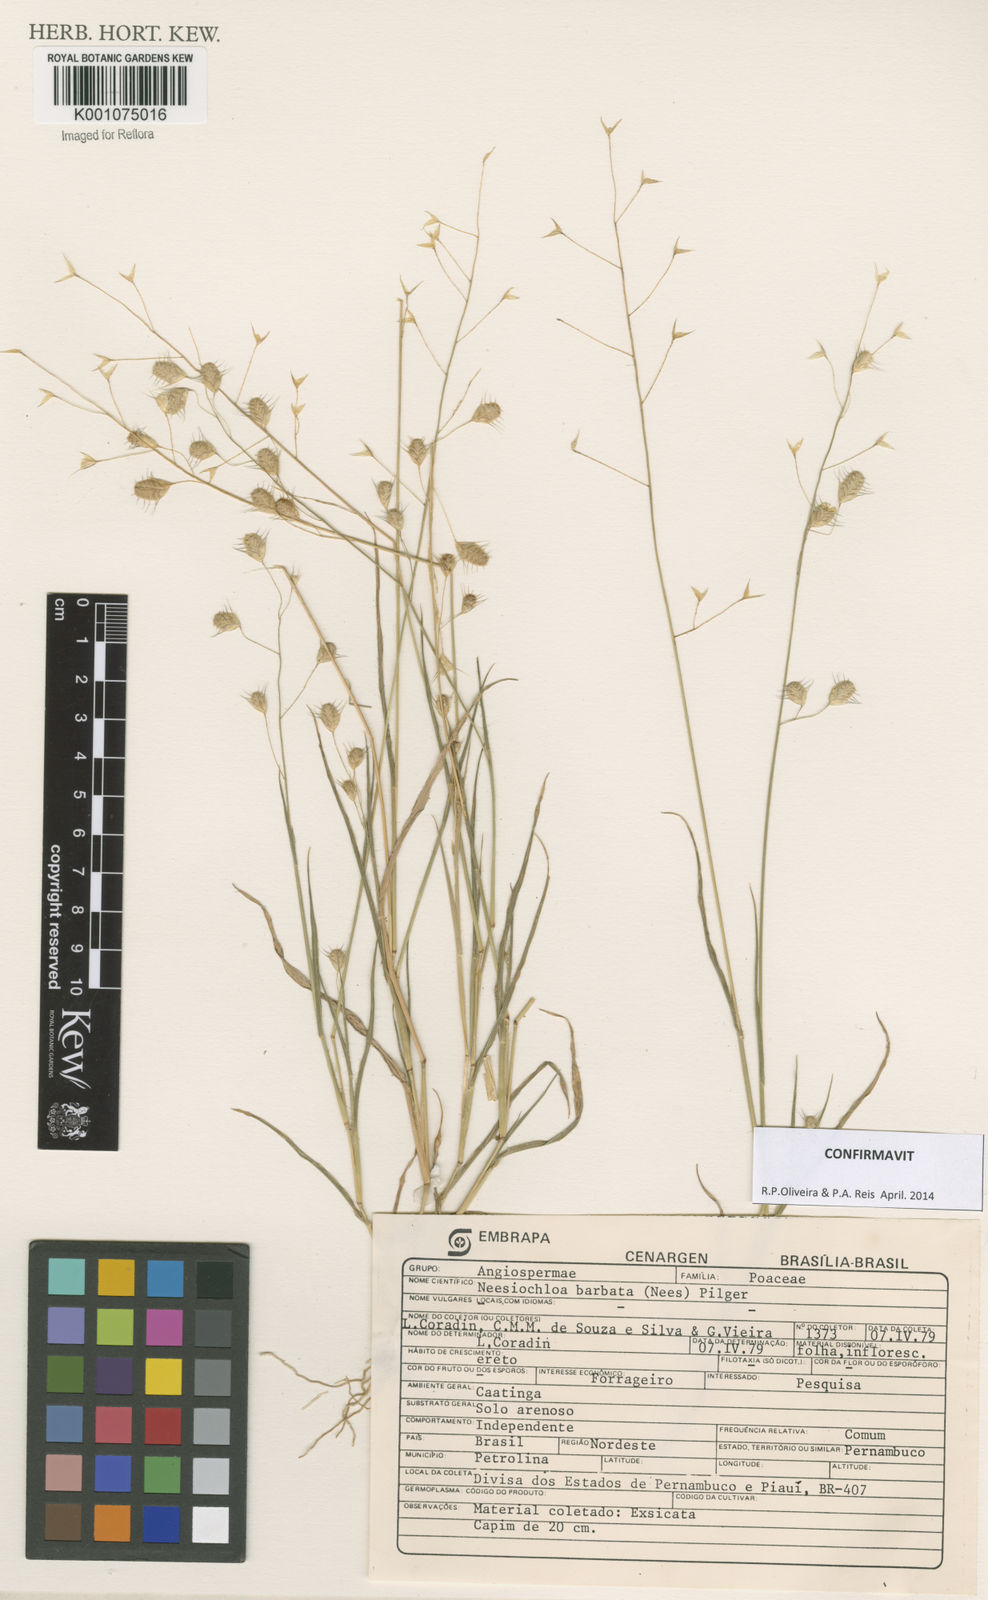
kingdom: Plantae
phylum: Tracheophyta
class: Liliopsida
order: Poales
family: Poaceae
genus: Neesiochloa
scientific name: Neesiochloa barbata
